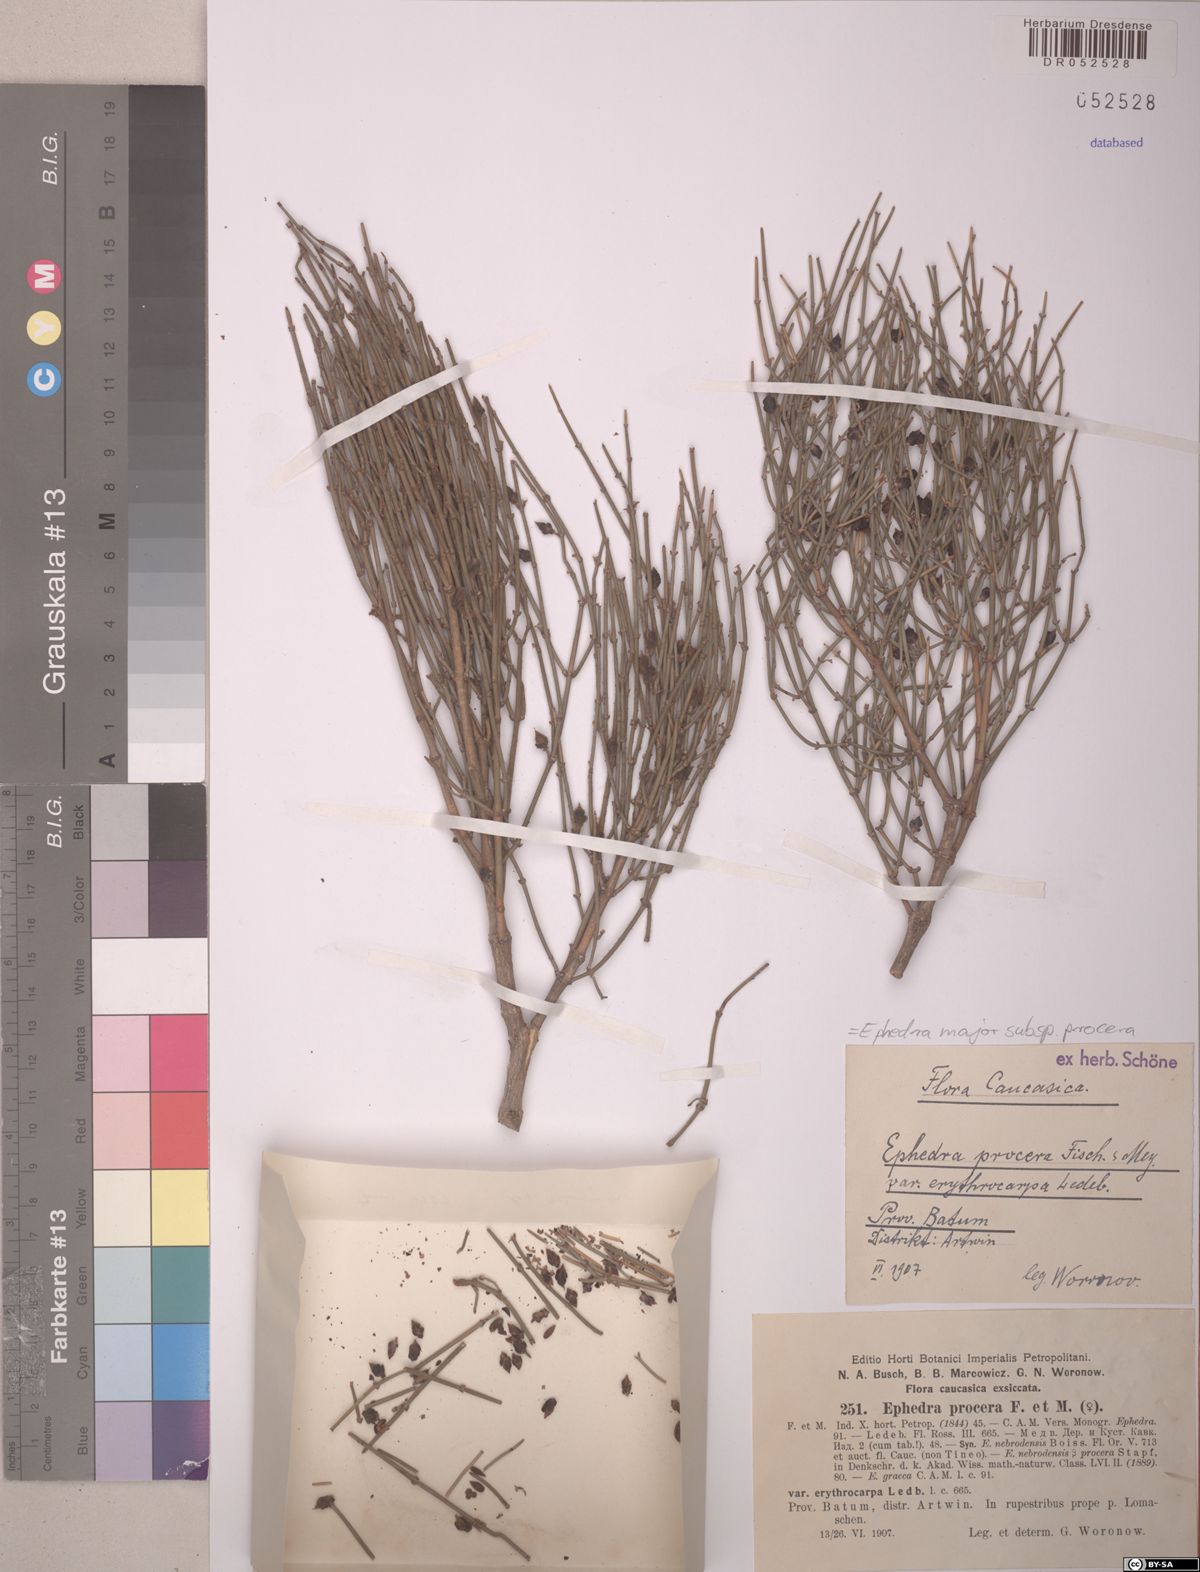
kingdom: Plantae
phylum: Tracheophyta
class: Gnetopsida
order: Ephedrales
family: Ephedraceae
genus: Ephedra
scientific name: Ephedra procera
